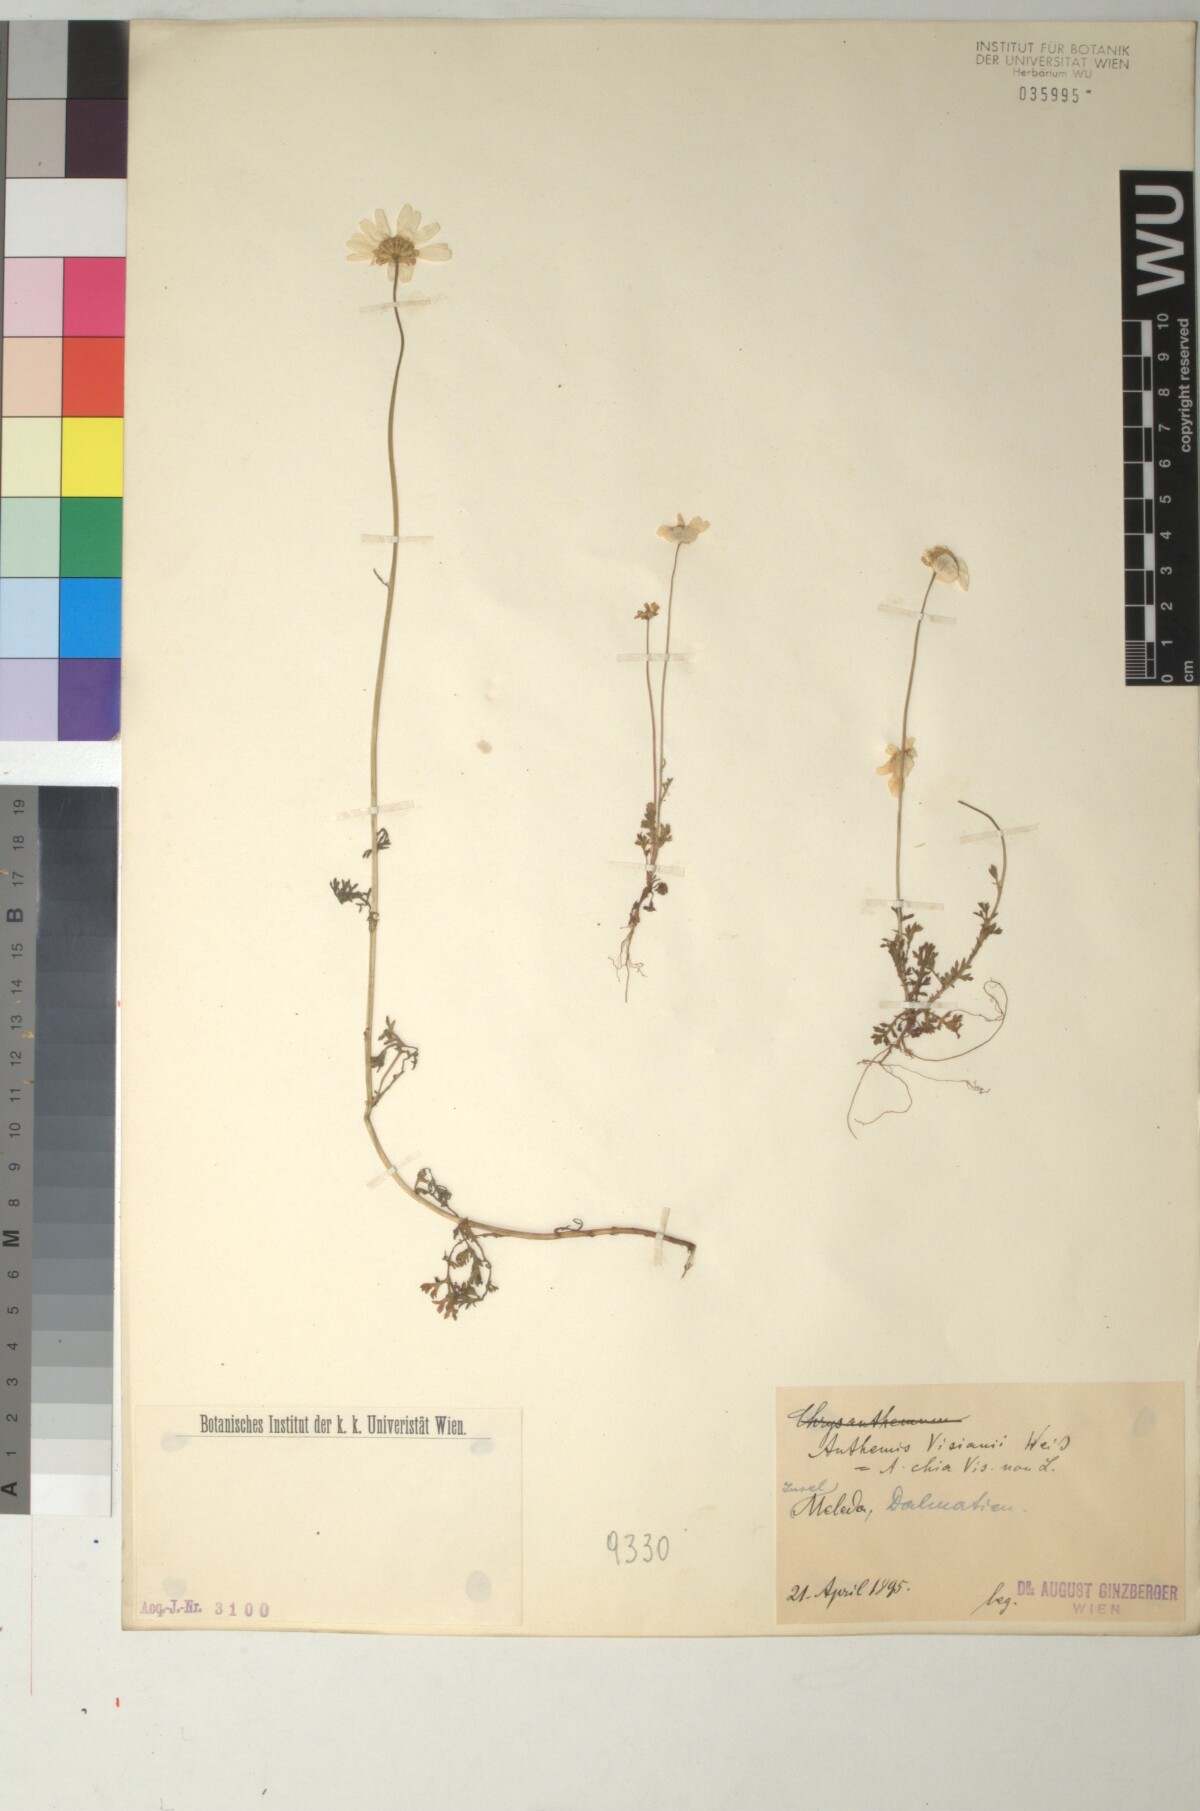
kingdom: Plantae
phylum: Tracheophyta
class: Magnoliopsida
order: Asterales
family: Asteraceae
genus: Anthemis
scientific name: Anthemis chia
